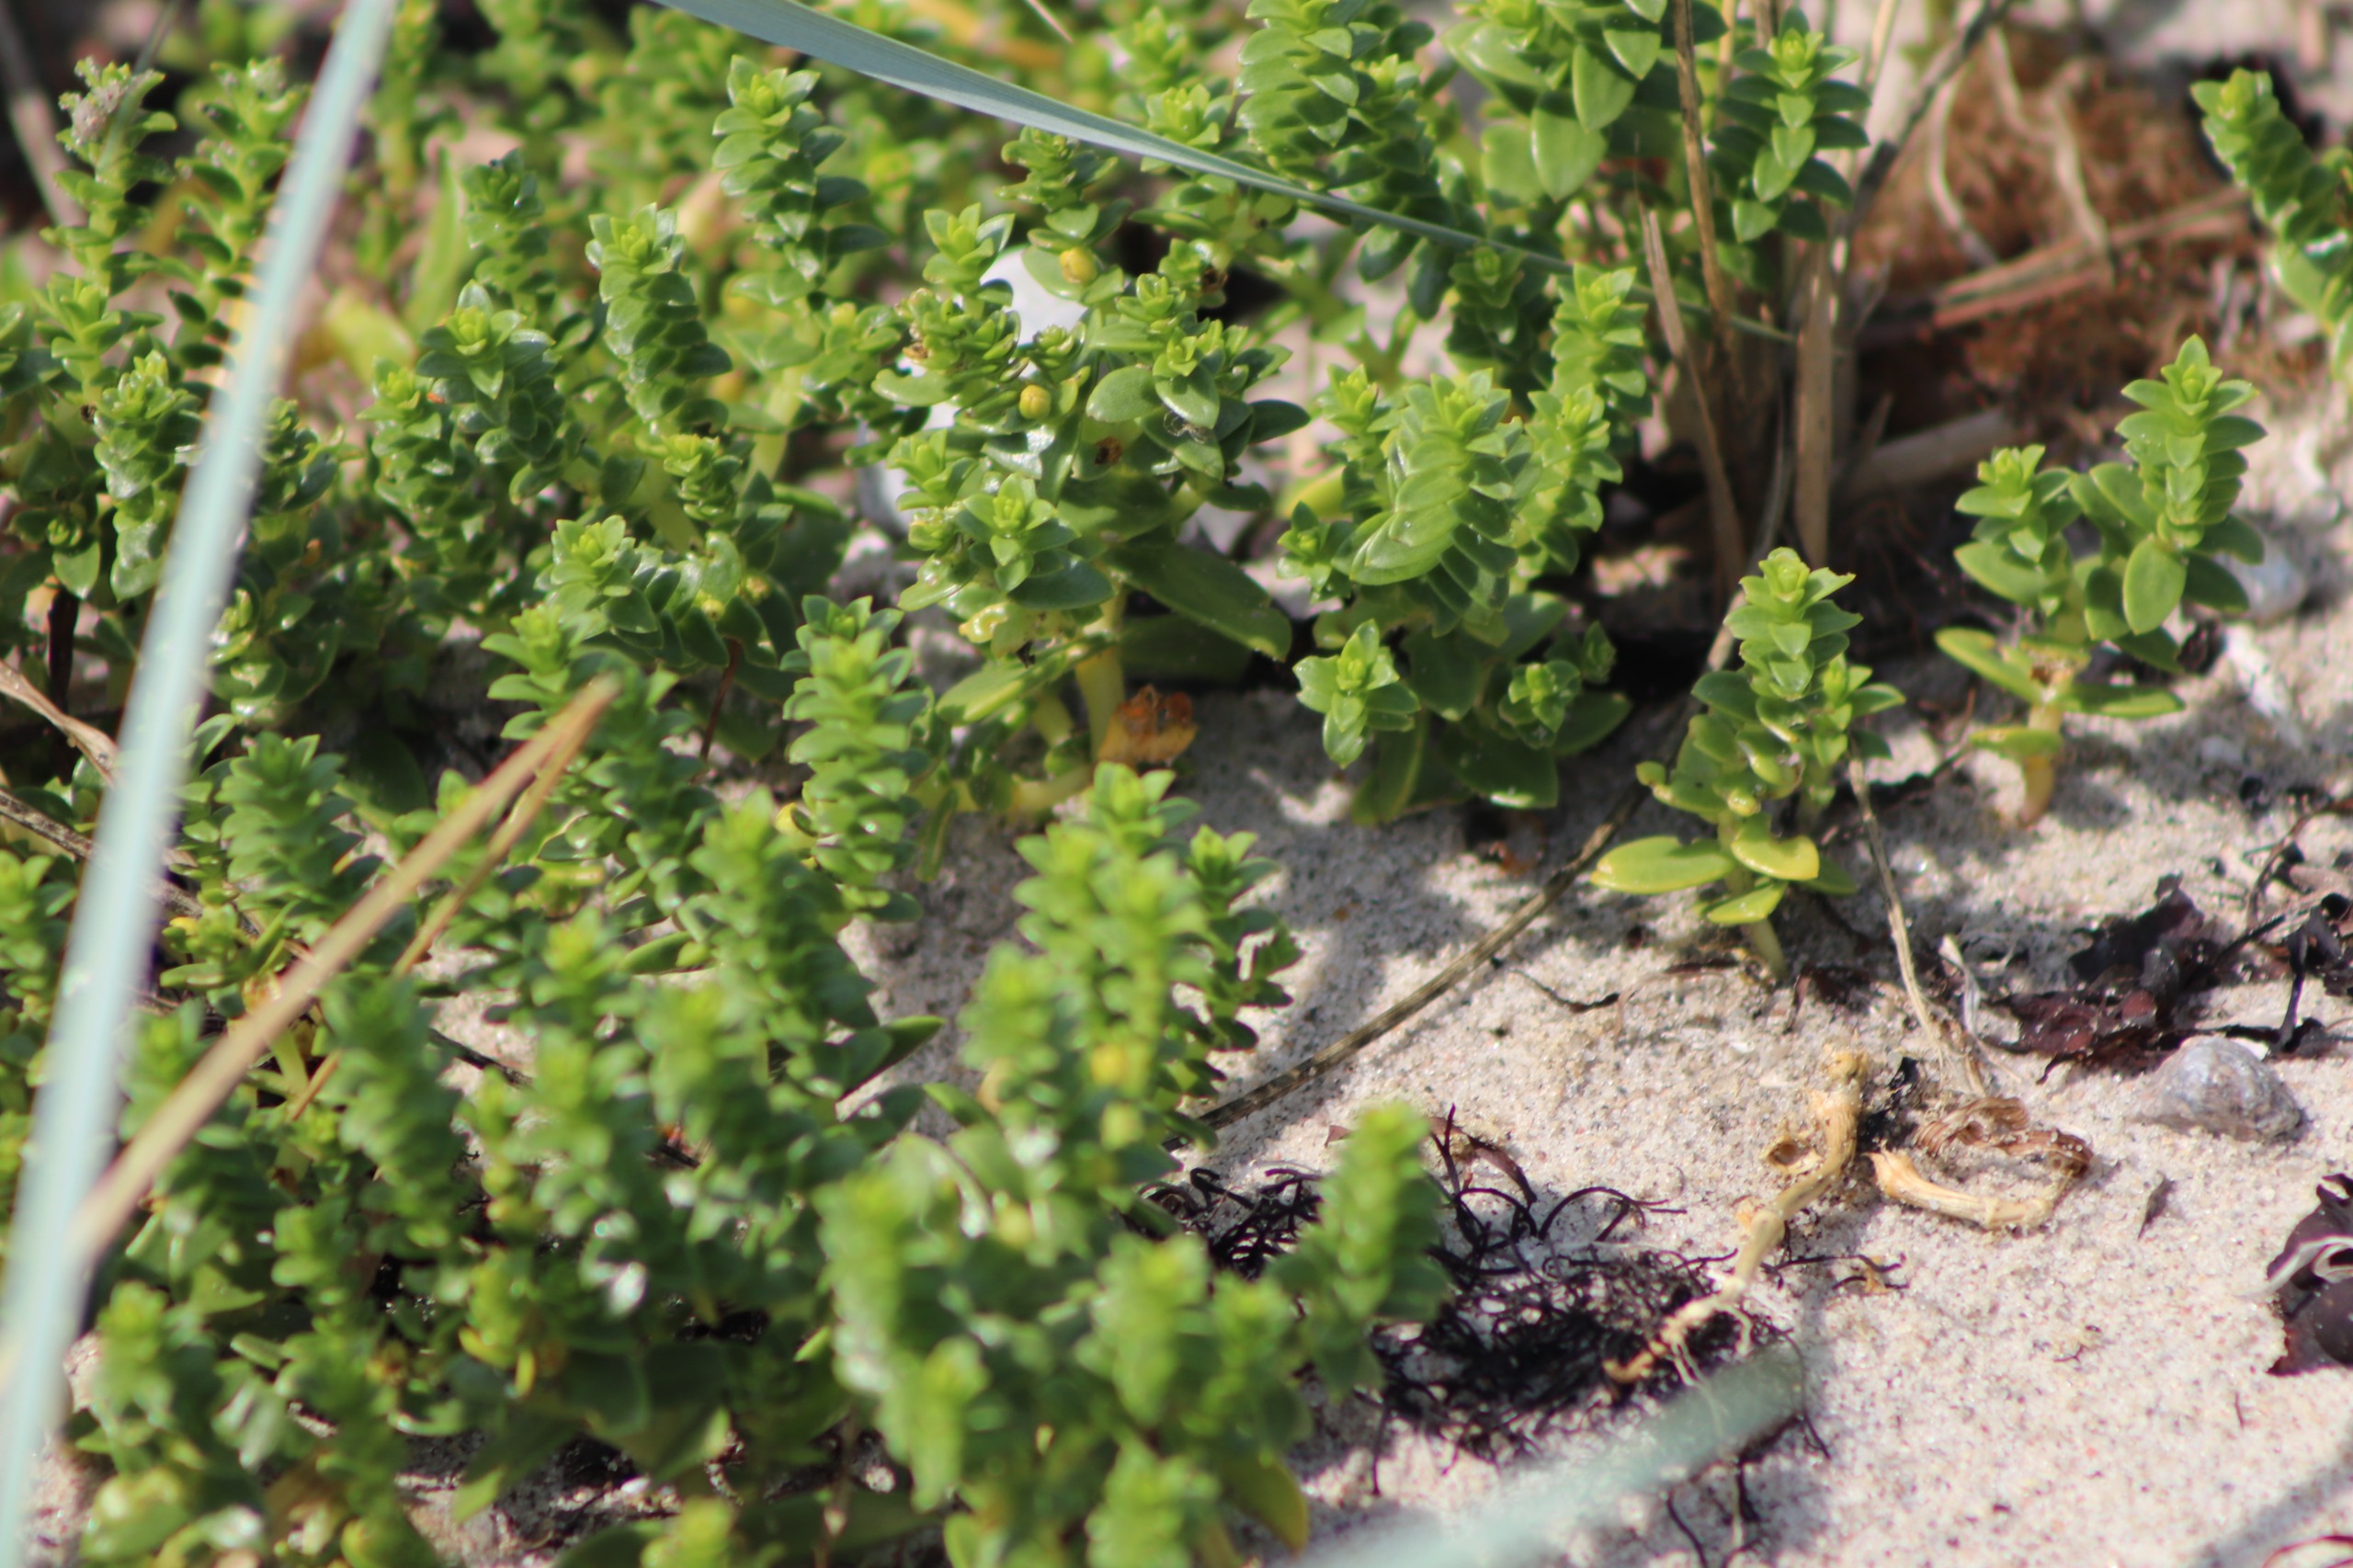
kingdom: Plantae
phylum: Tracheophyta
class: Magnoliopsida
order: Caryophyllales
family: Caryophyllaceae
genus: Honckenya
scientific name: Honckenya peploides
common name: Strandarve
